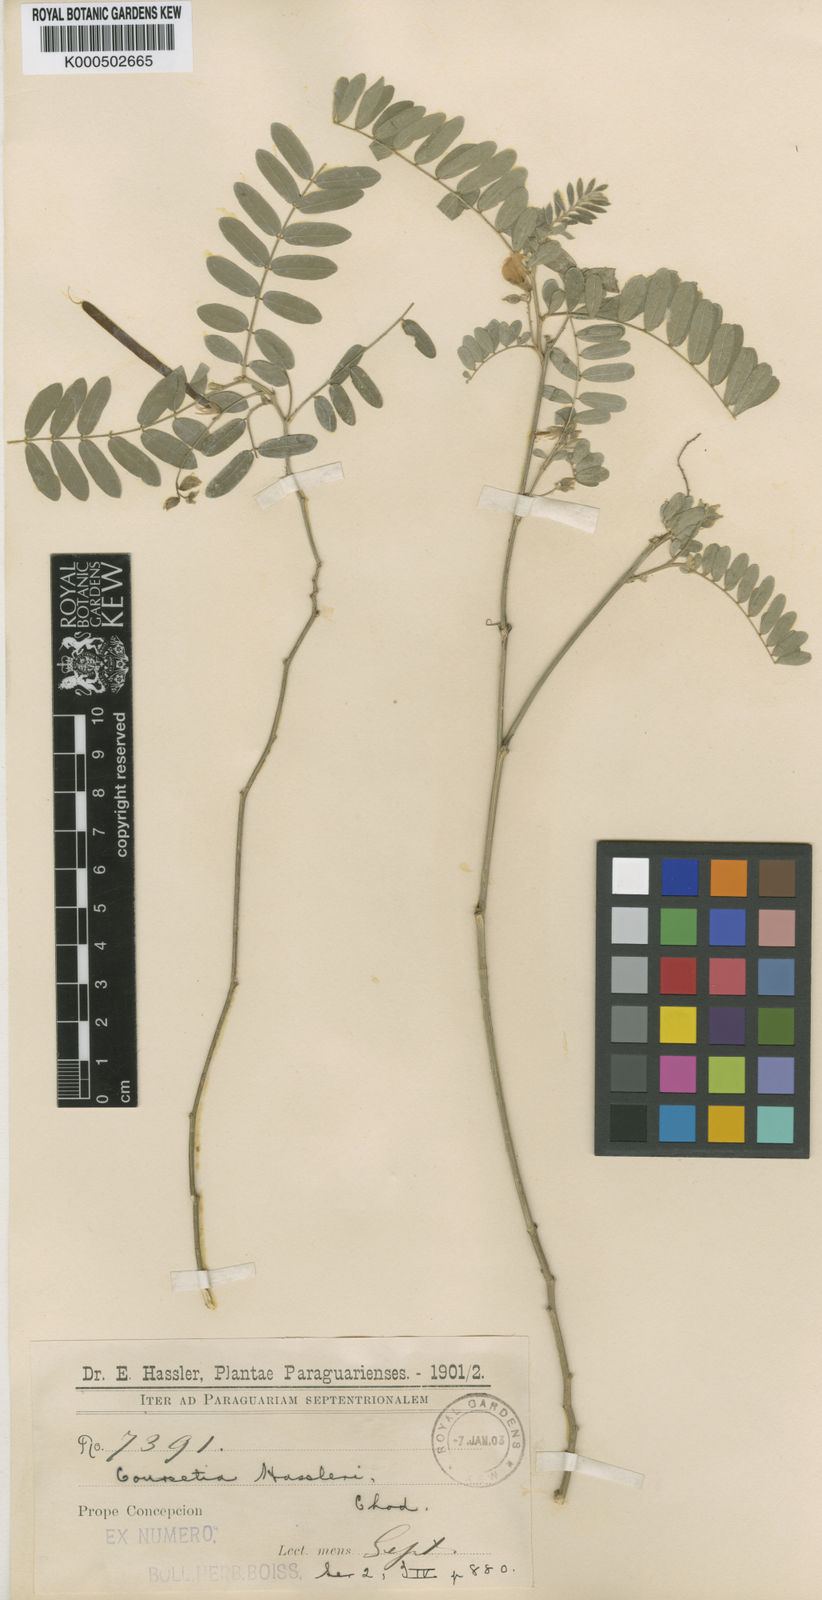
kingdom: Plantae
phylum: Tracheophyta
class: Magnoliopsida
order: Fabales
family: Fabaceae
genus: Coursetia
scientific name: Coursetia hassleri
